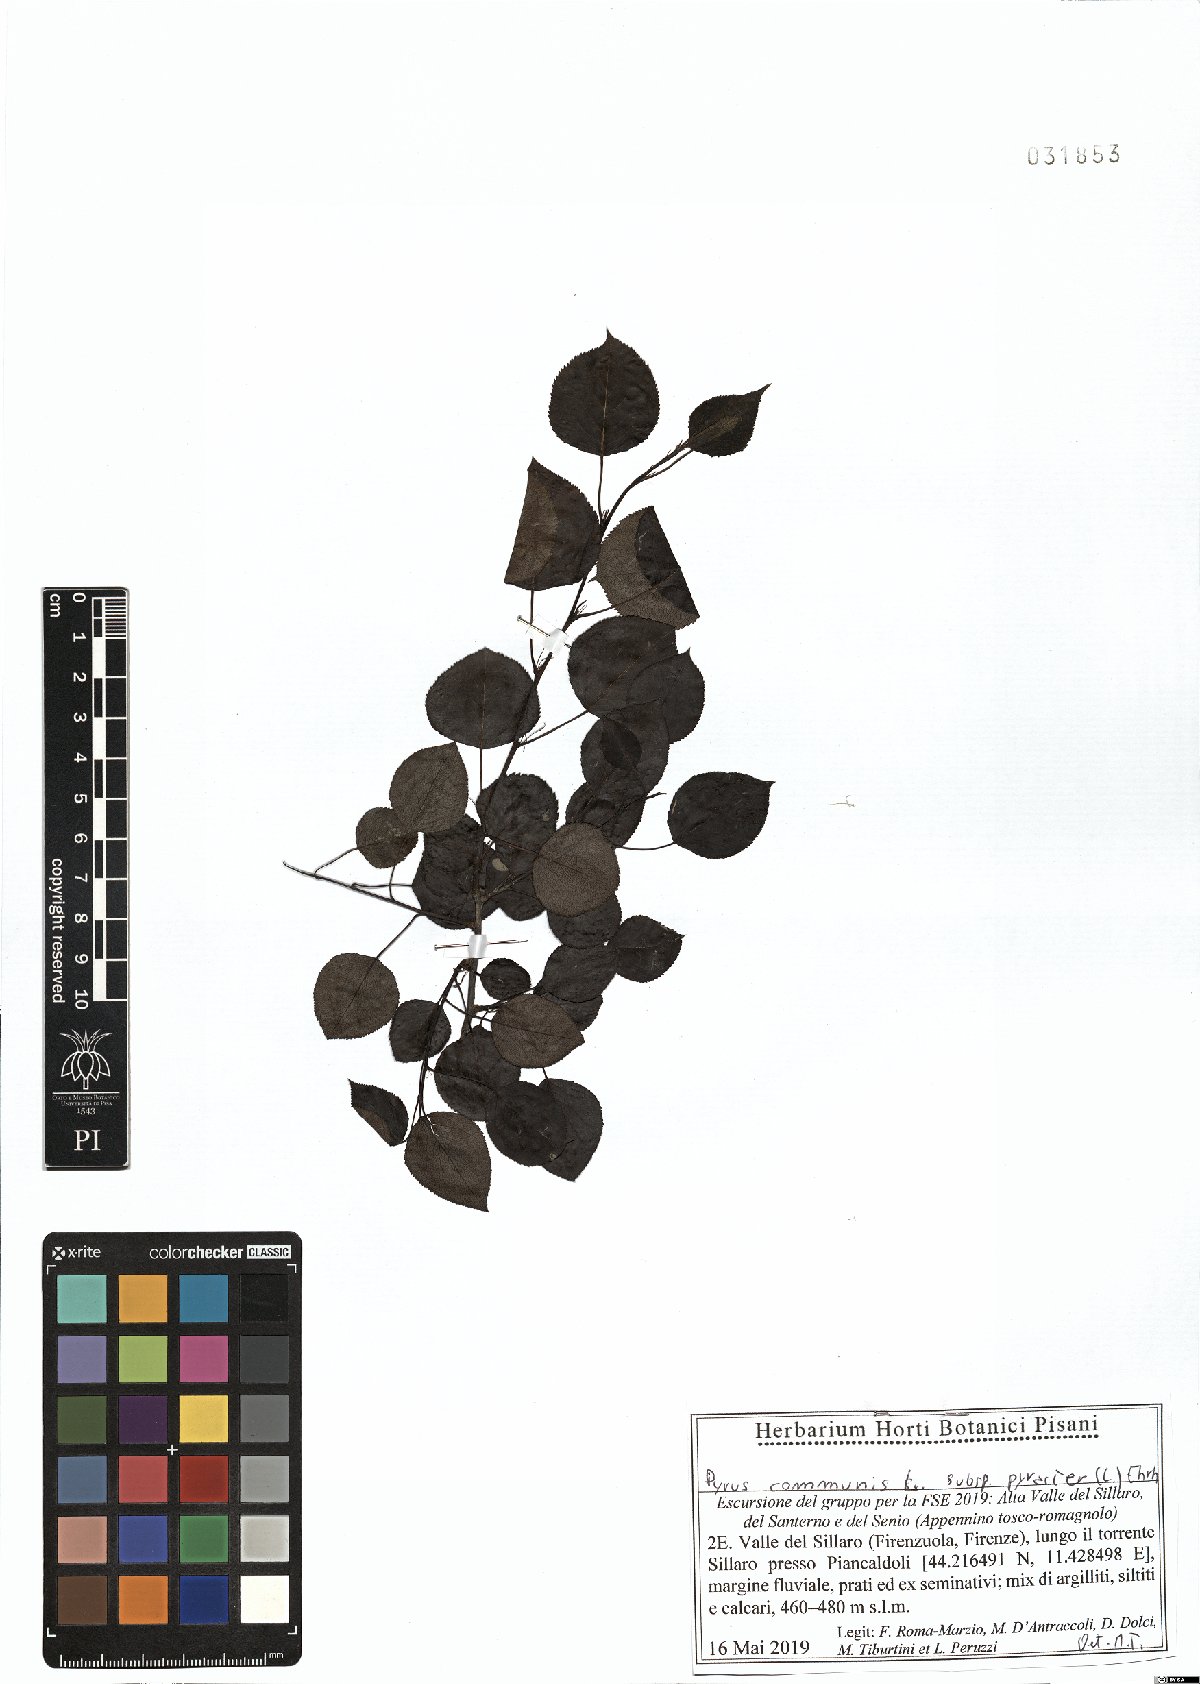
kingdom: Plantae
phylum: Tracheophyta
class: Magnoliopsida
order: Rosales
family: Rosaceae
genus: Pyrus
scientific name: Pyrus pyraster
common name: Wild pear
